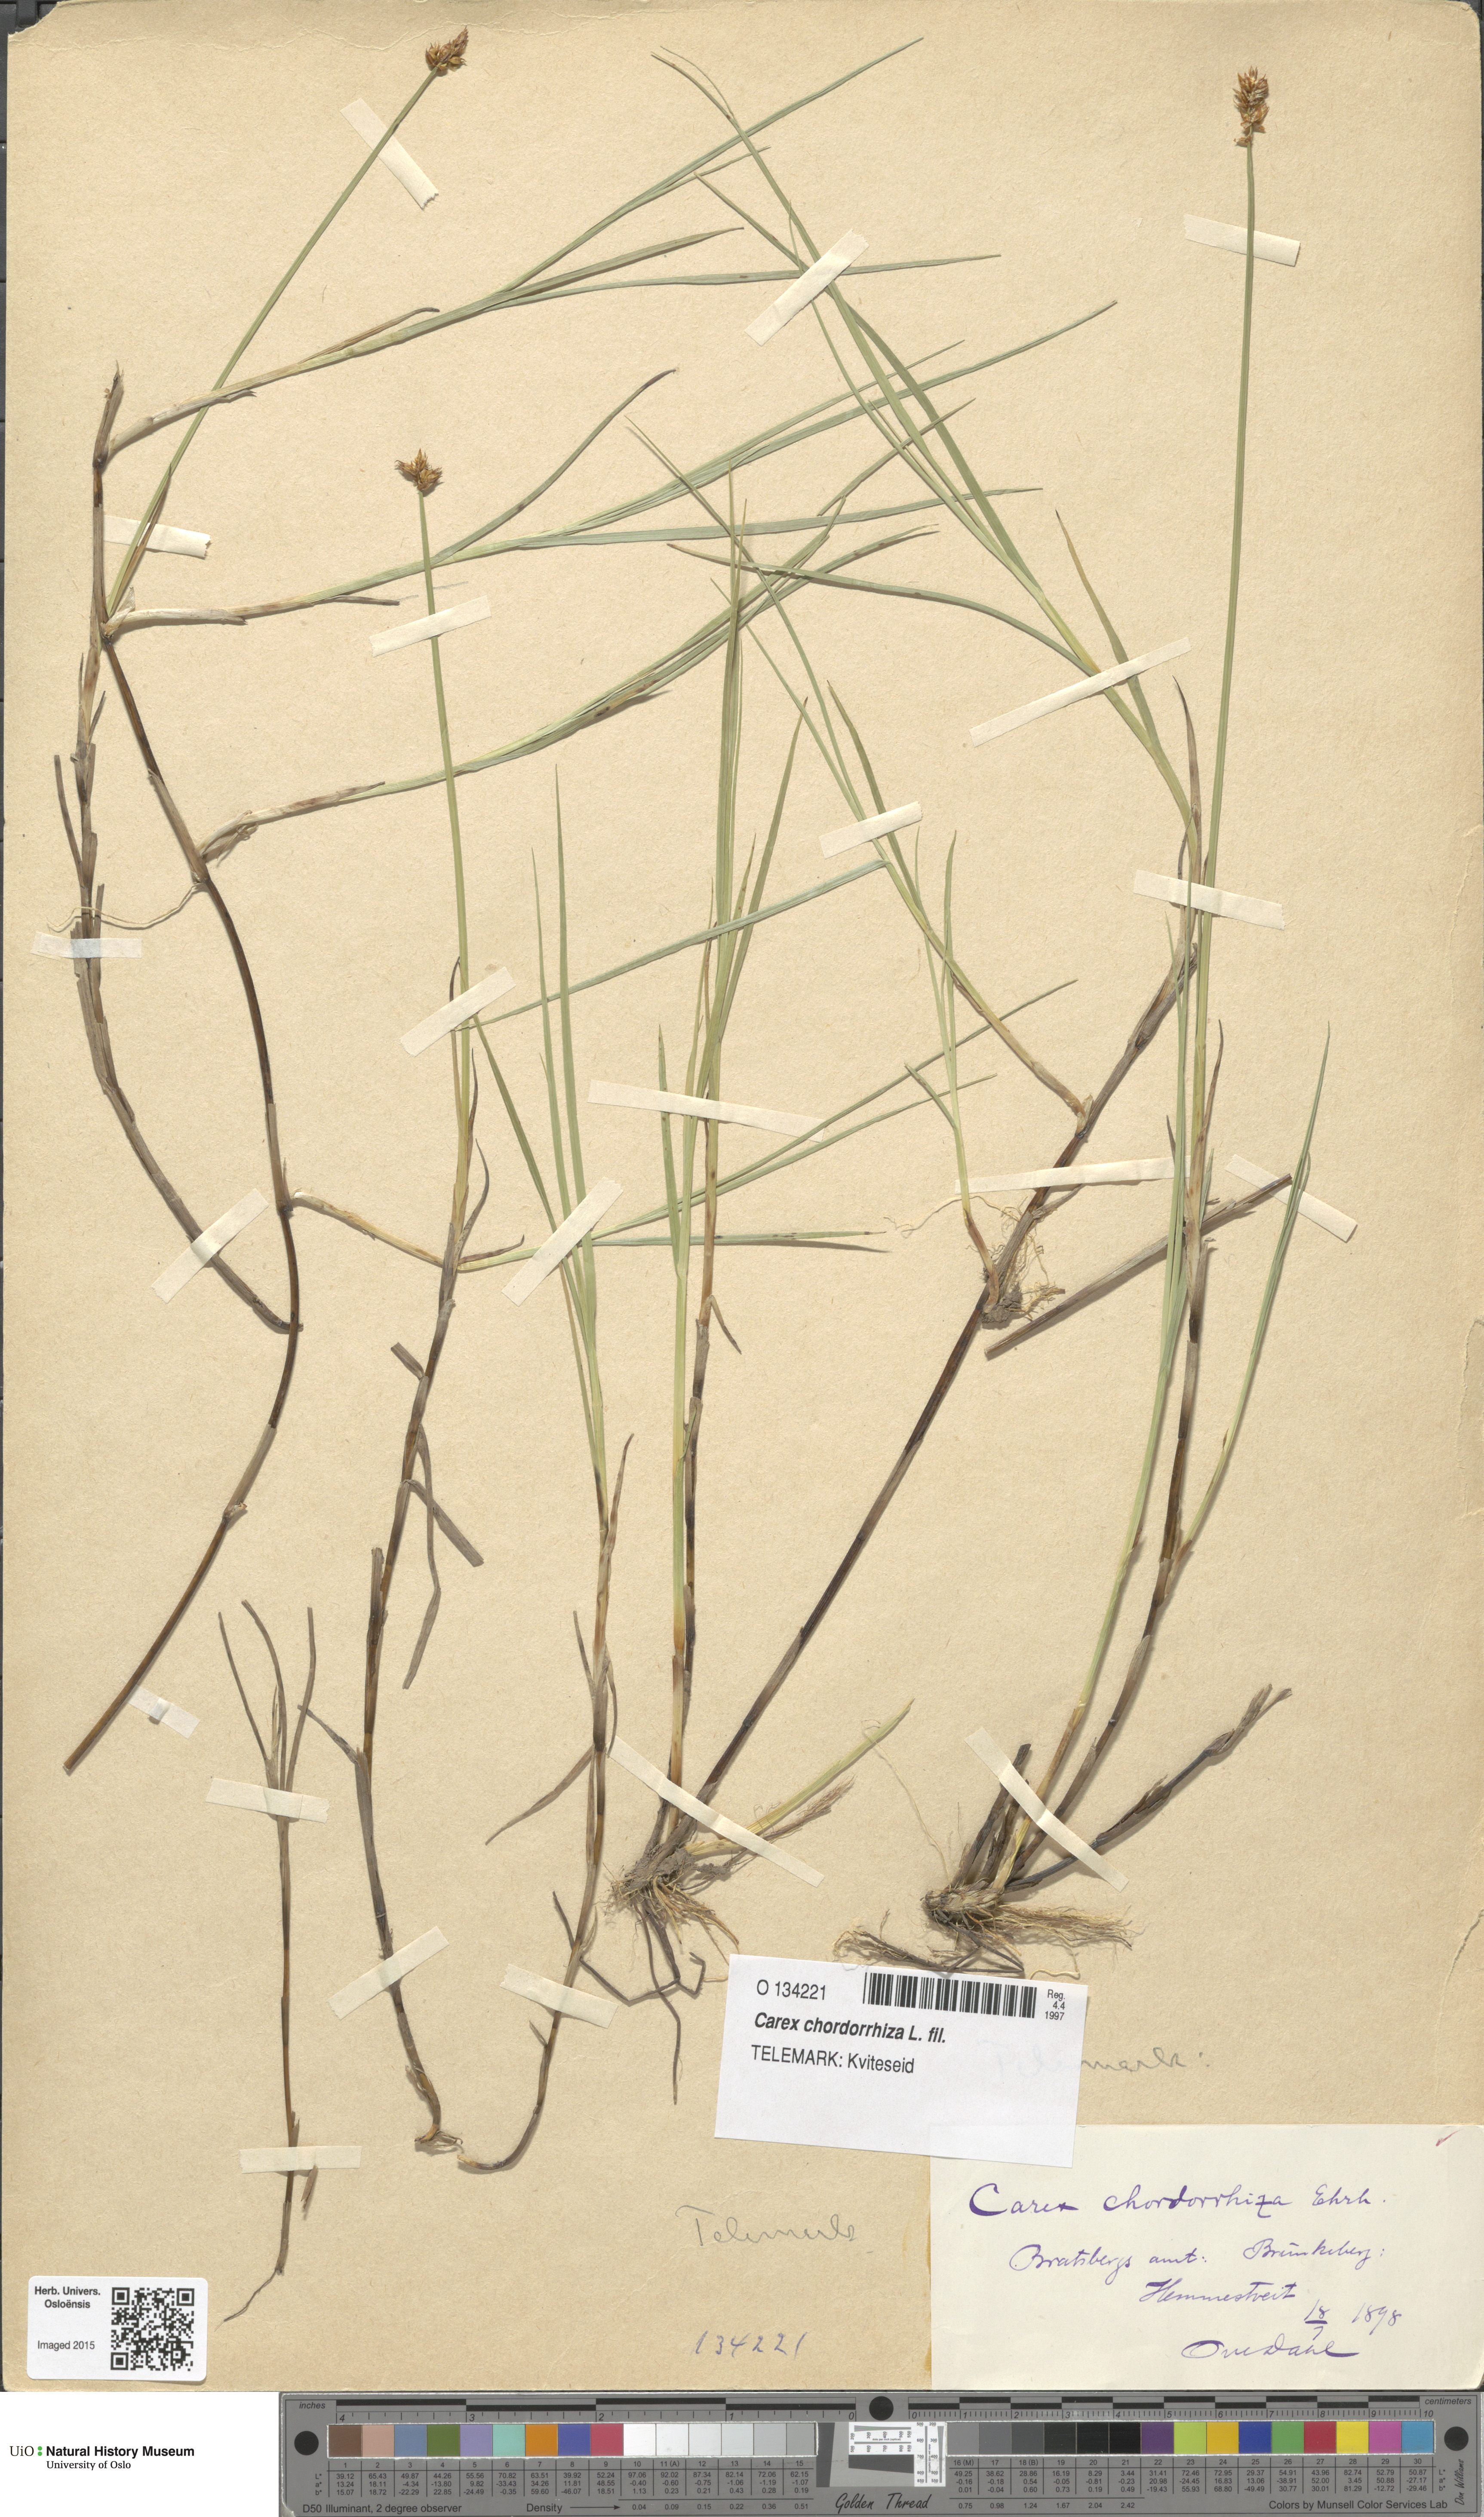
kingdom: Plantae
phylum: Tracheophyta
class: Liliopsida
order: Poales
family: Cyperaceae
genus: Carex
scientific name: Carex chordorrhiza
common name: String sedge
